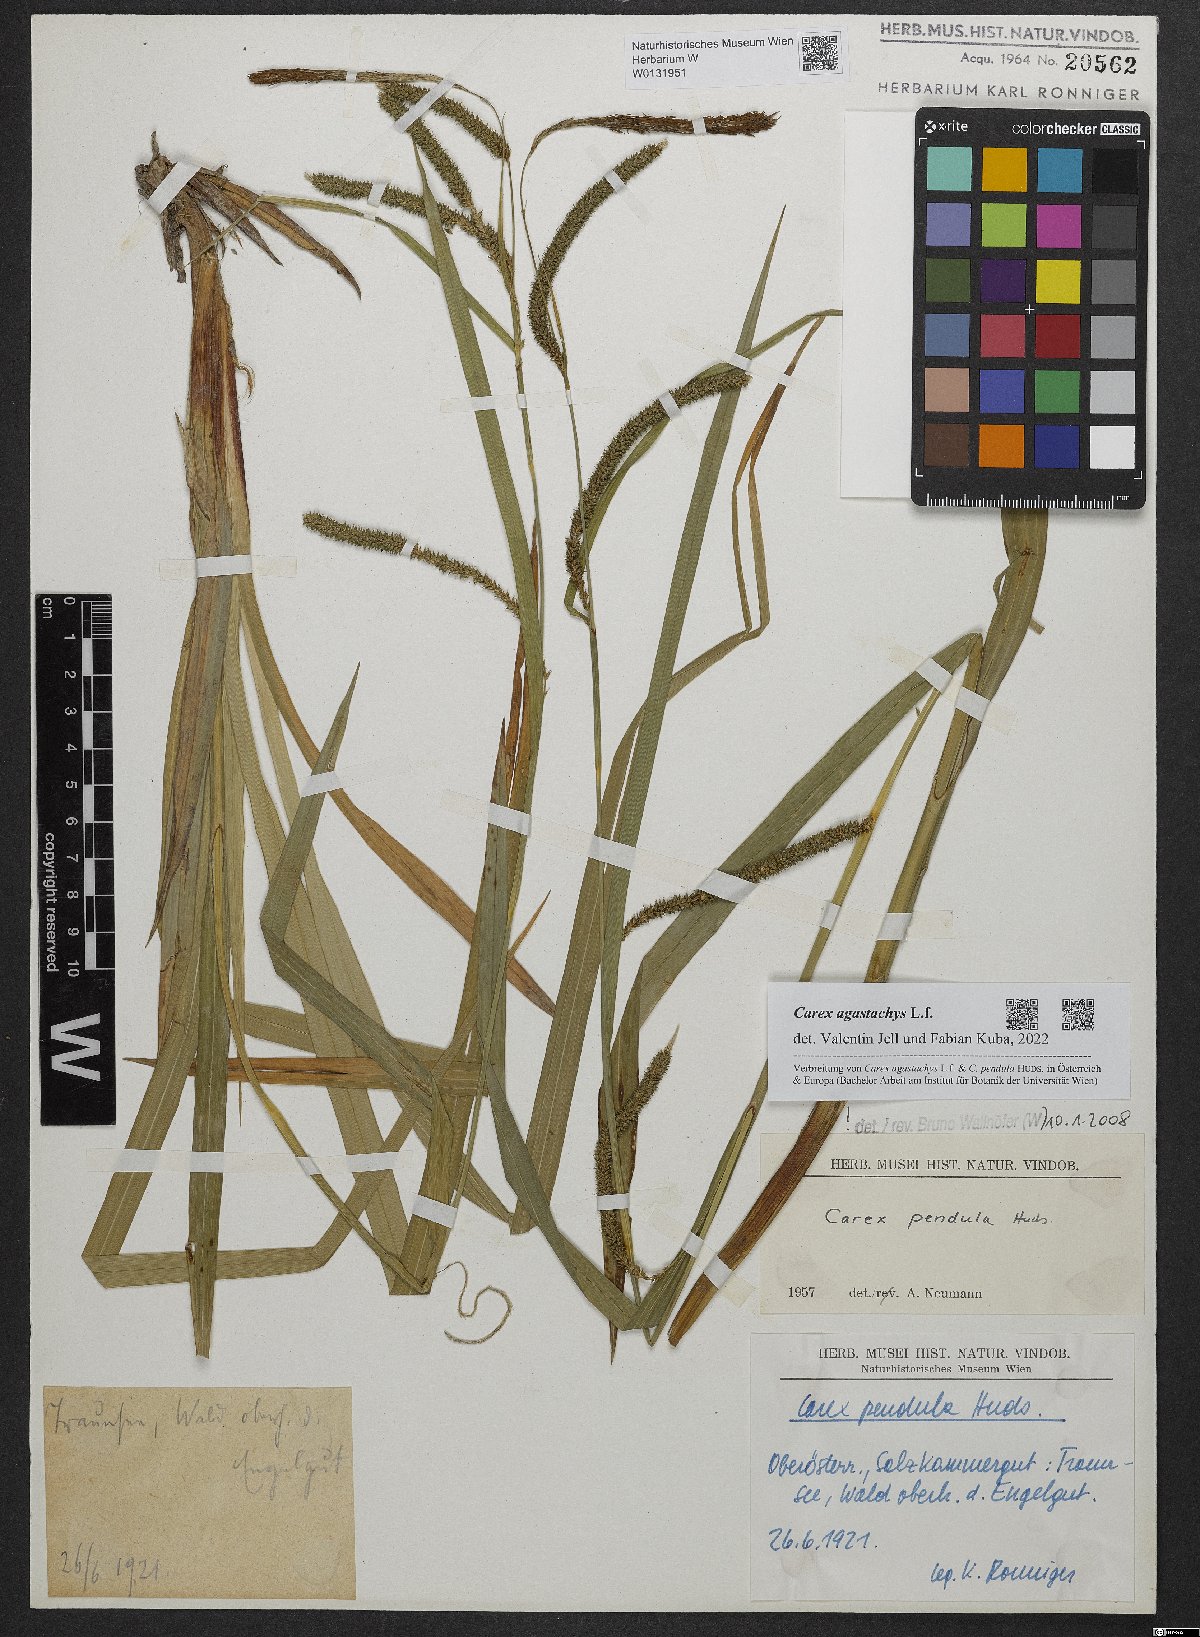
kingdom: Plantae
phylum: Tracheophyta
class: Liliopsida
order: Poales
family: Cyperaceae
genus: Carex
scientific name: Carex agastachys
